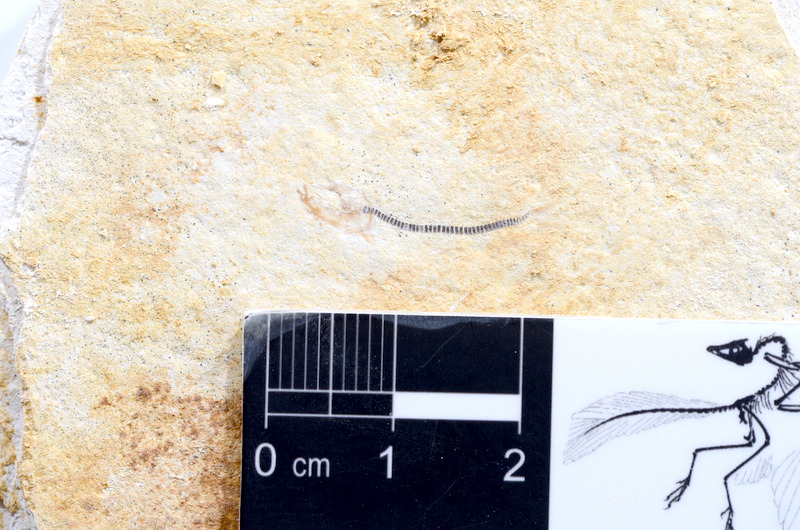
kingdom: Animalia
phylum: Chordata
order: Salmoniformes
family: Orthogonikleithridae
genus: Orthogonikleithrus
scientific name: Orthogonikleithrus hoelli
